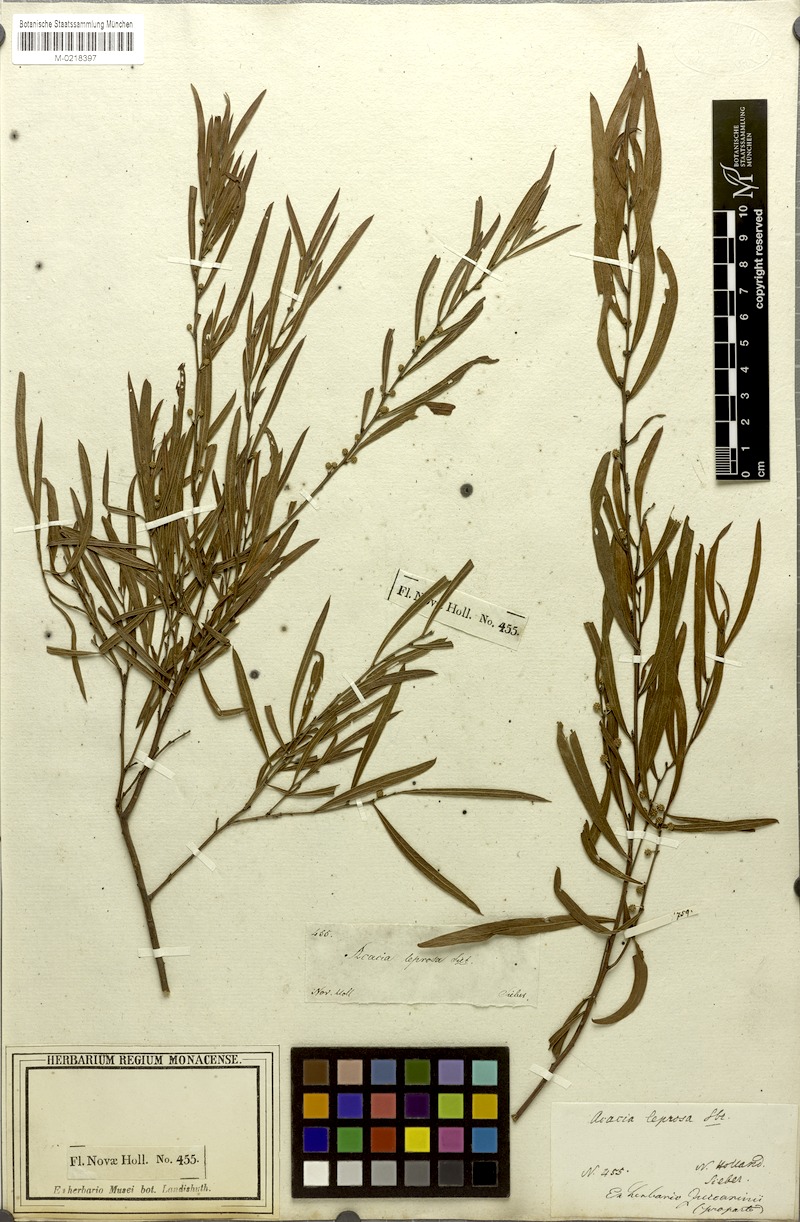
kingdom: Plantae
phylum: Tracheophyta
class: Magnoliopsida
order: Fabales
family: Fabaceae
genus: Acacia
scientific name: Acacia leprosa
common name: Cinnamon wattle
